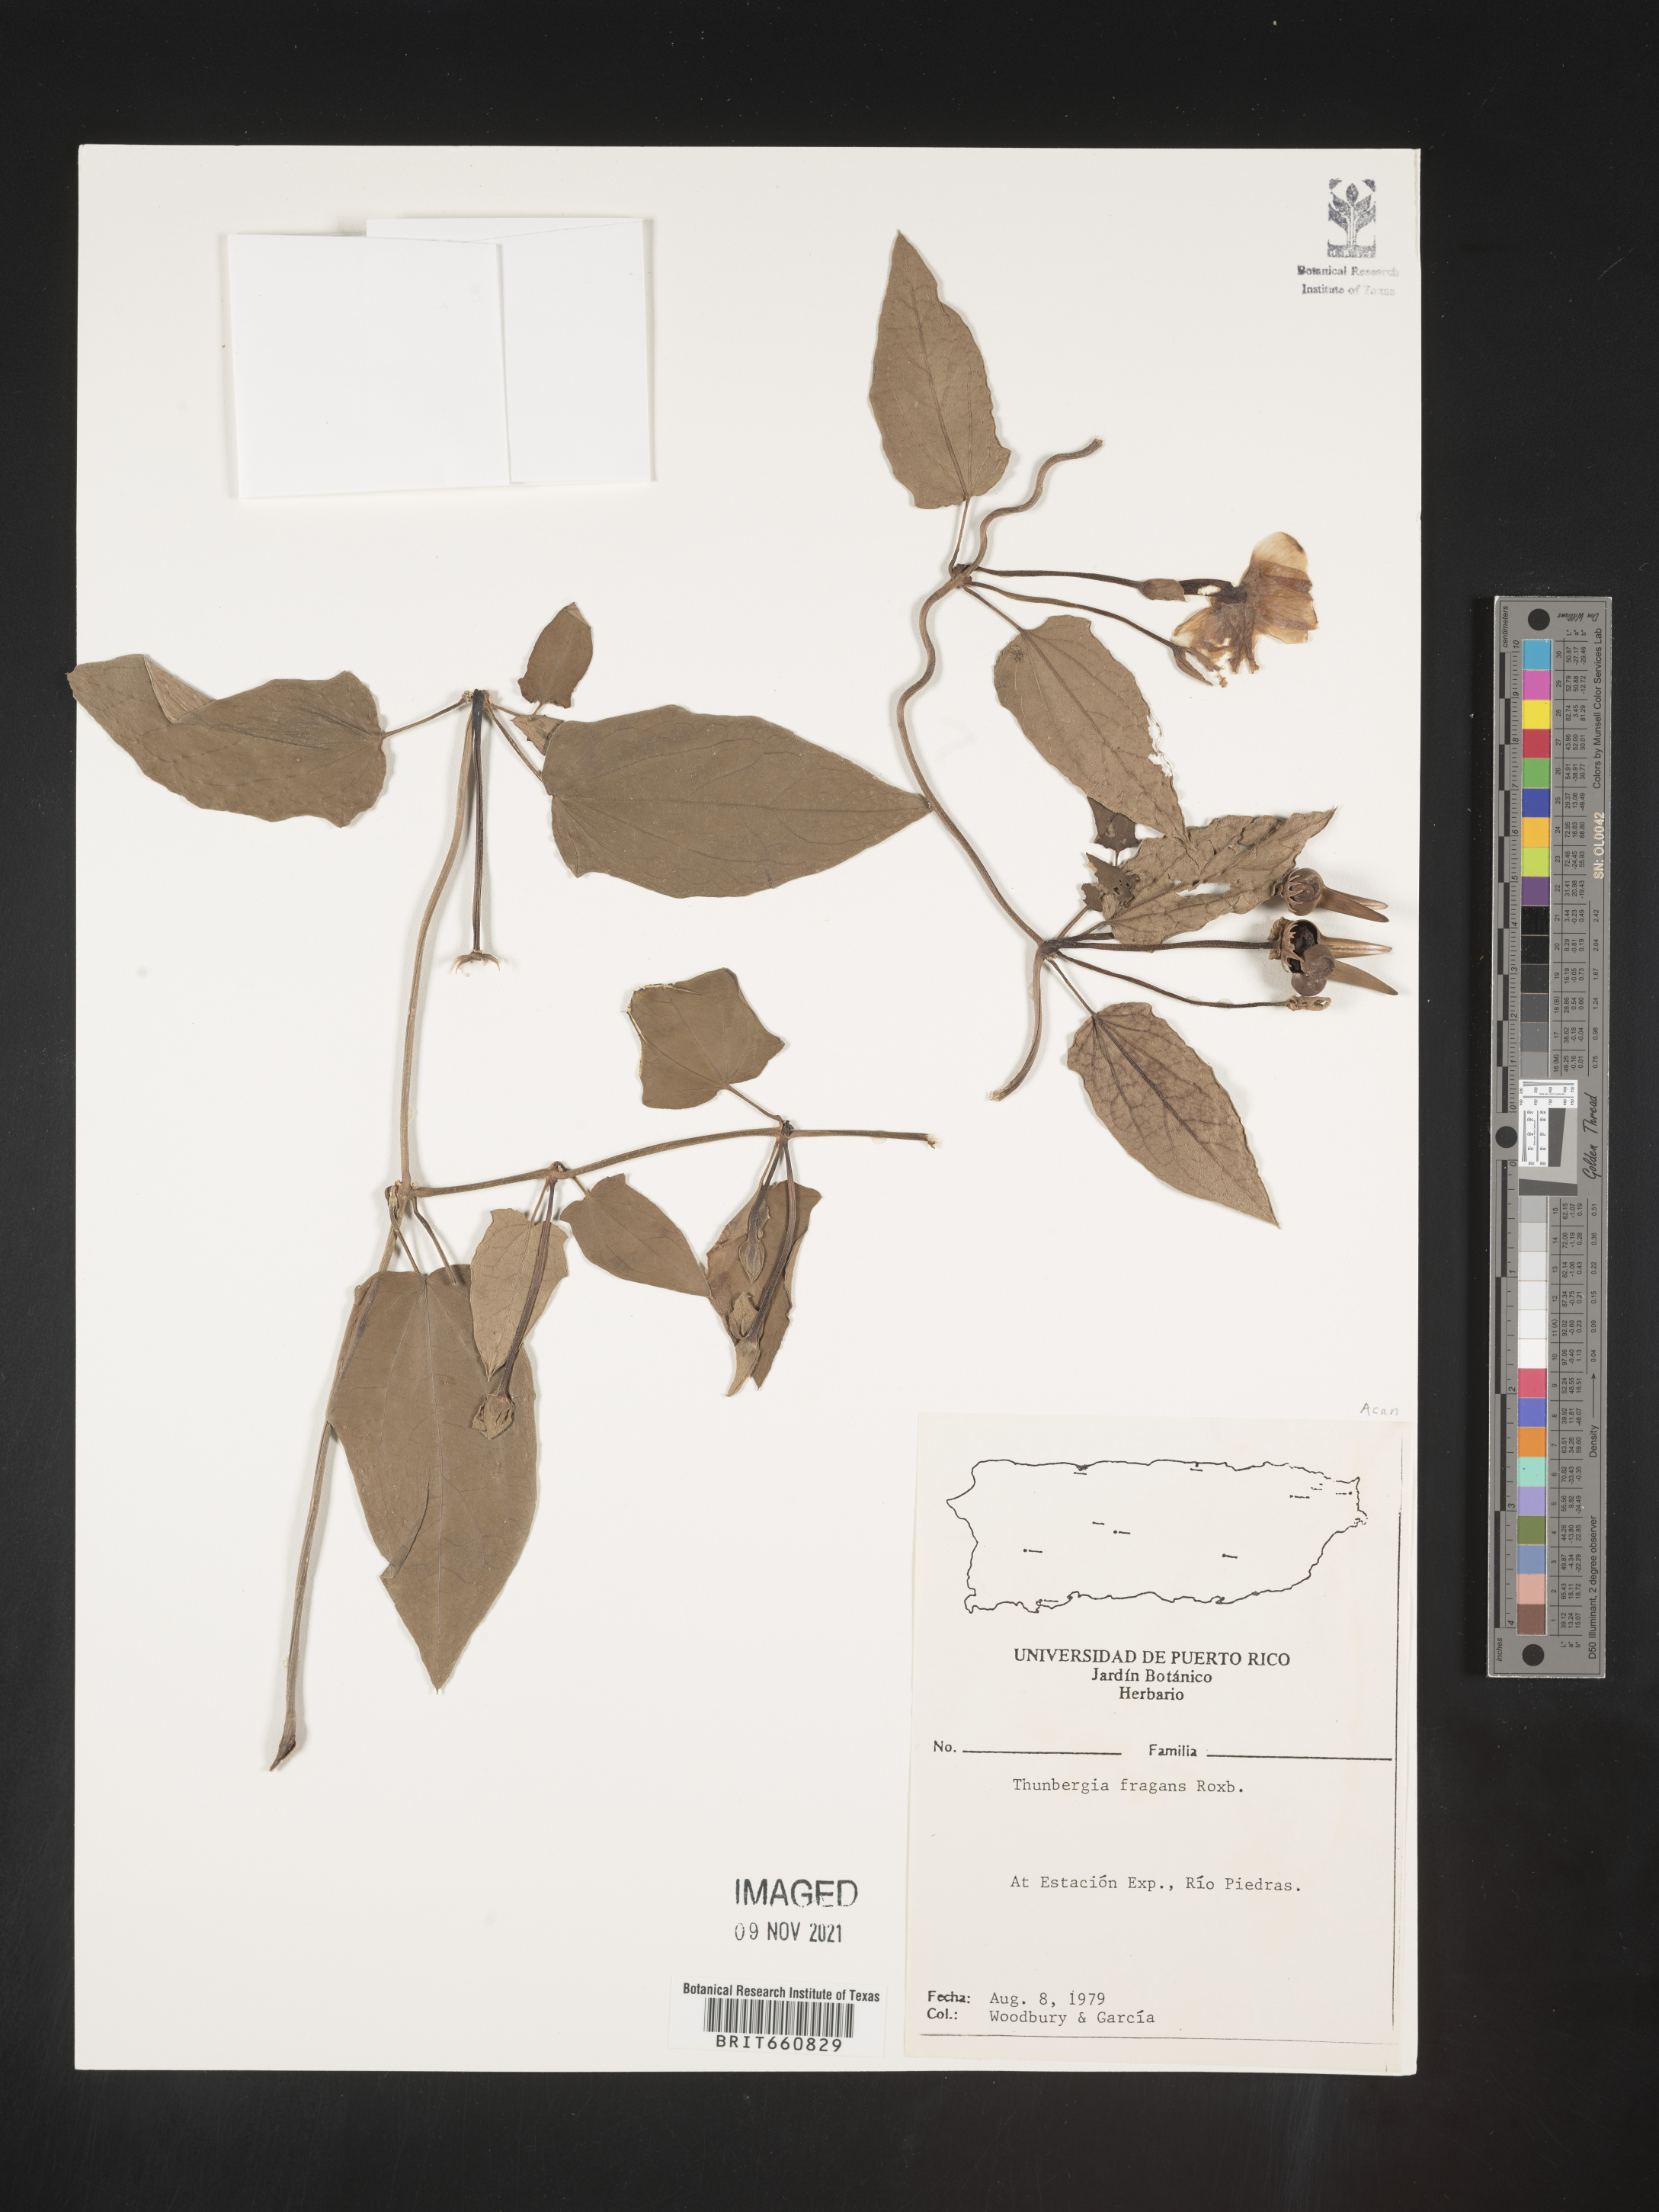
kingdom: Plantae
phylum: Tracheophyta
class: Magnoliopsida
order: Lamiales
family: Acanthaceae
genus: Thunbergia
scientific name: Thunbergia
